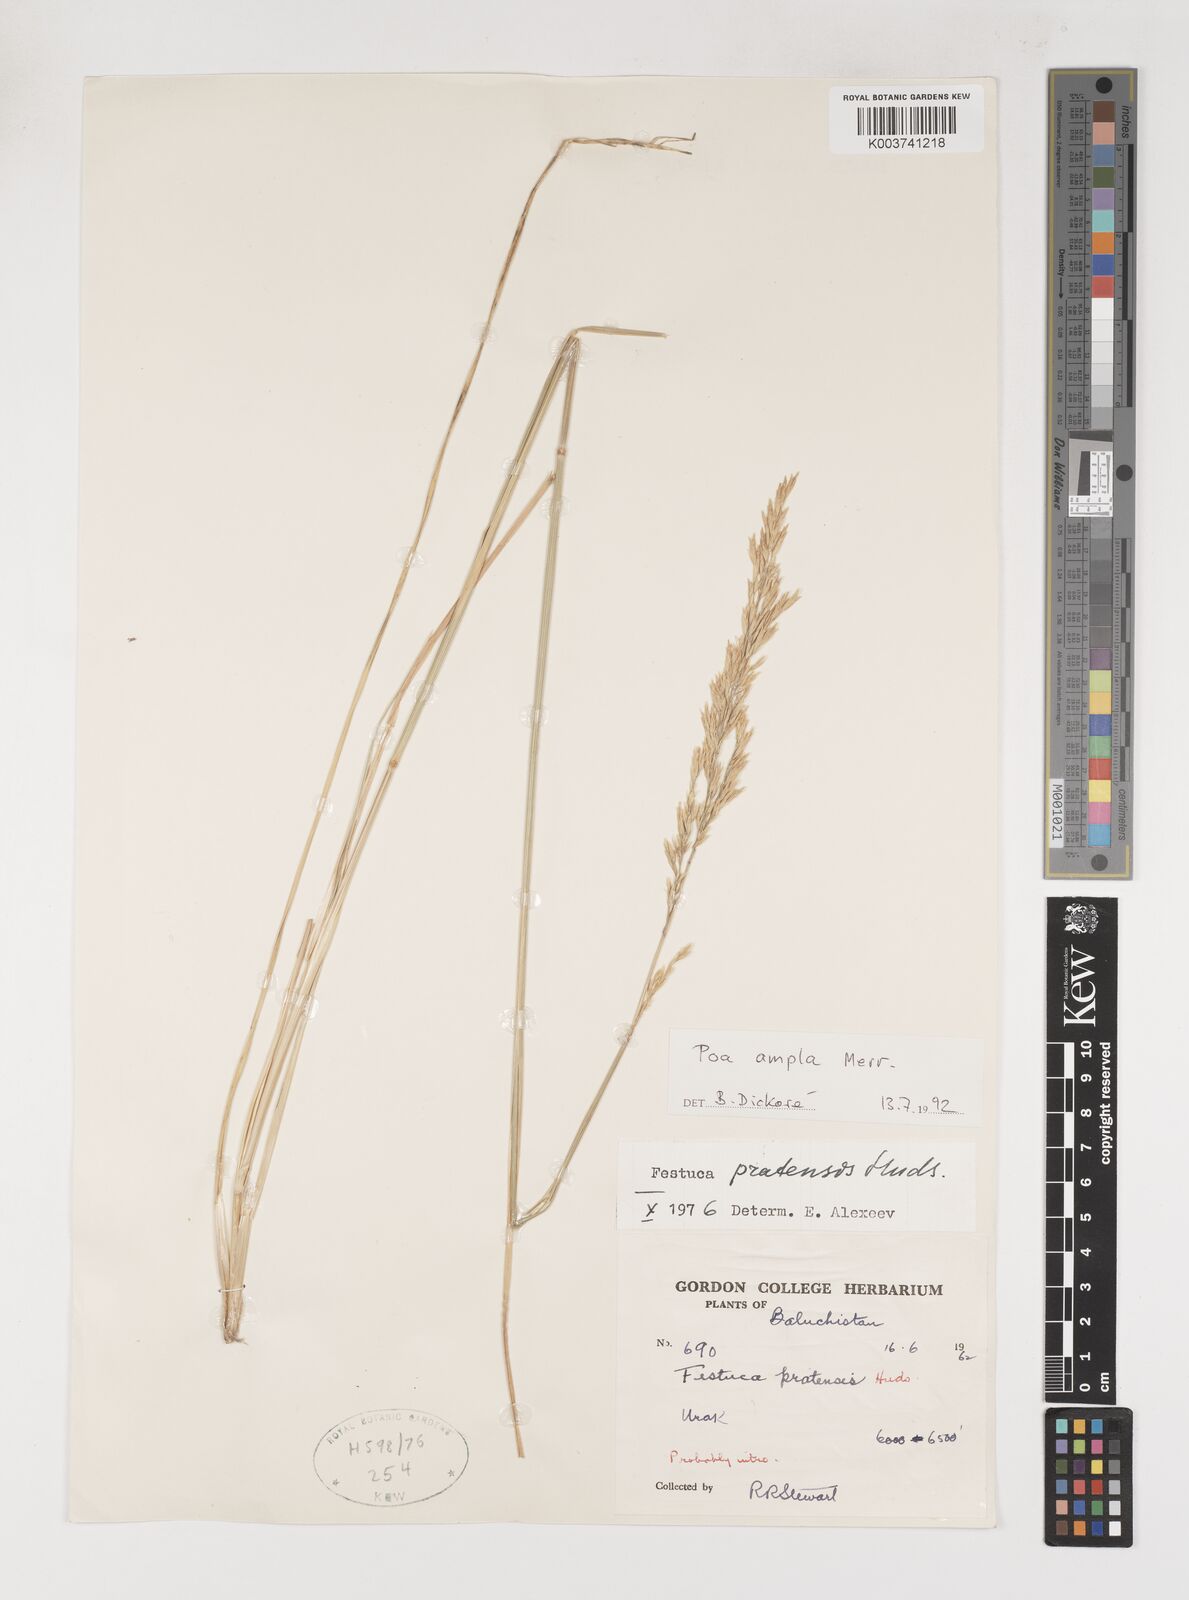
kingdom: Plantae
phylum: Tracheophyta
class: Liliopsida
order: Poales
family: Poaceae
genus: Poa
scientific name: Poa secunda
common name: Sandberg bluegrass
